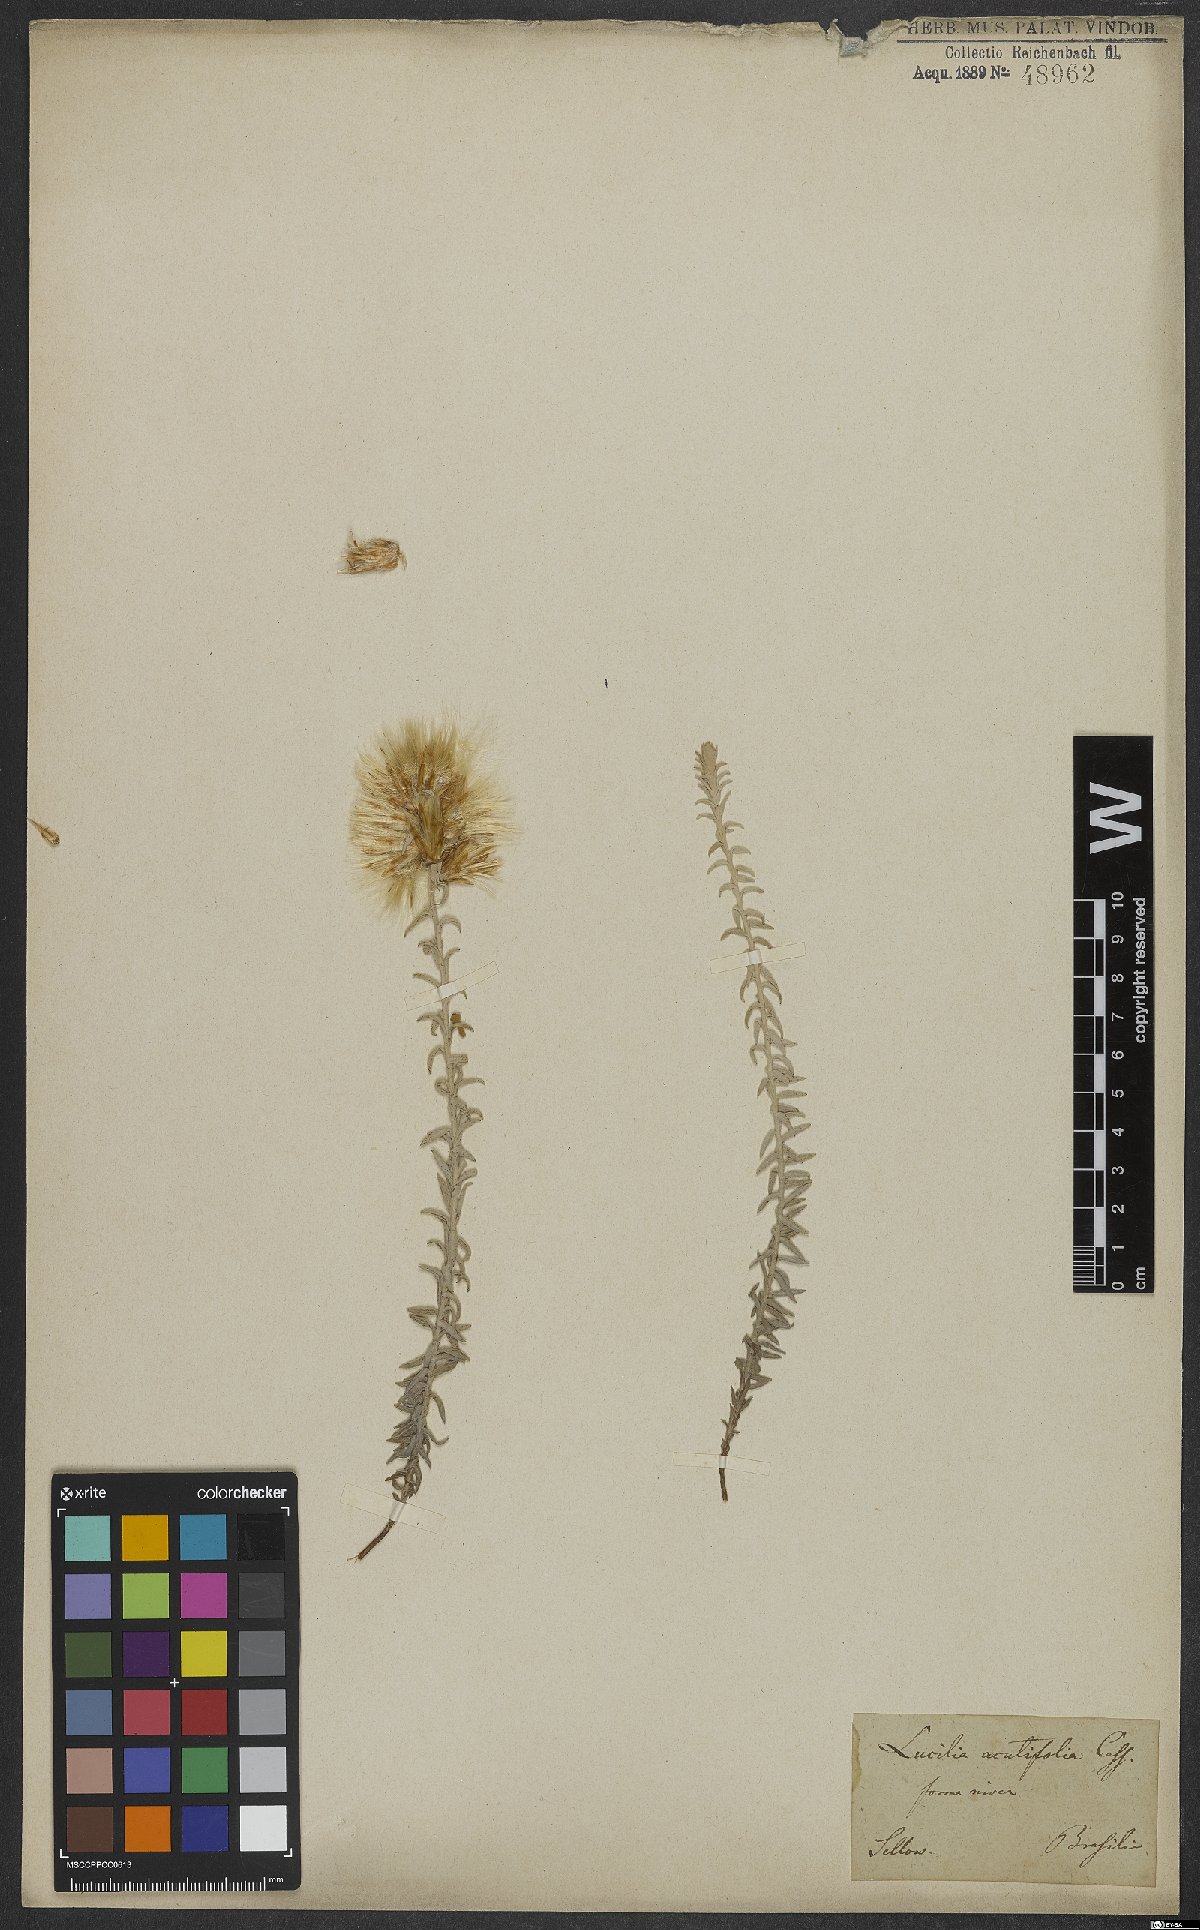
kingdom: Plantae
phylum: Tracheophyta
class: Magnoliopsida
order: Asterales
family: Asteraceae
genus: Lucilia
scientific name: Lucilia acutifolia
